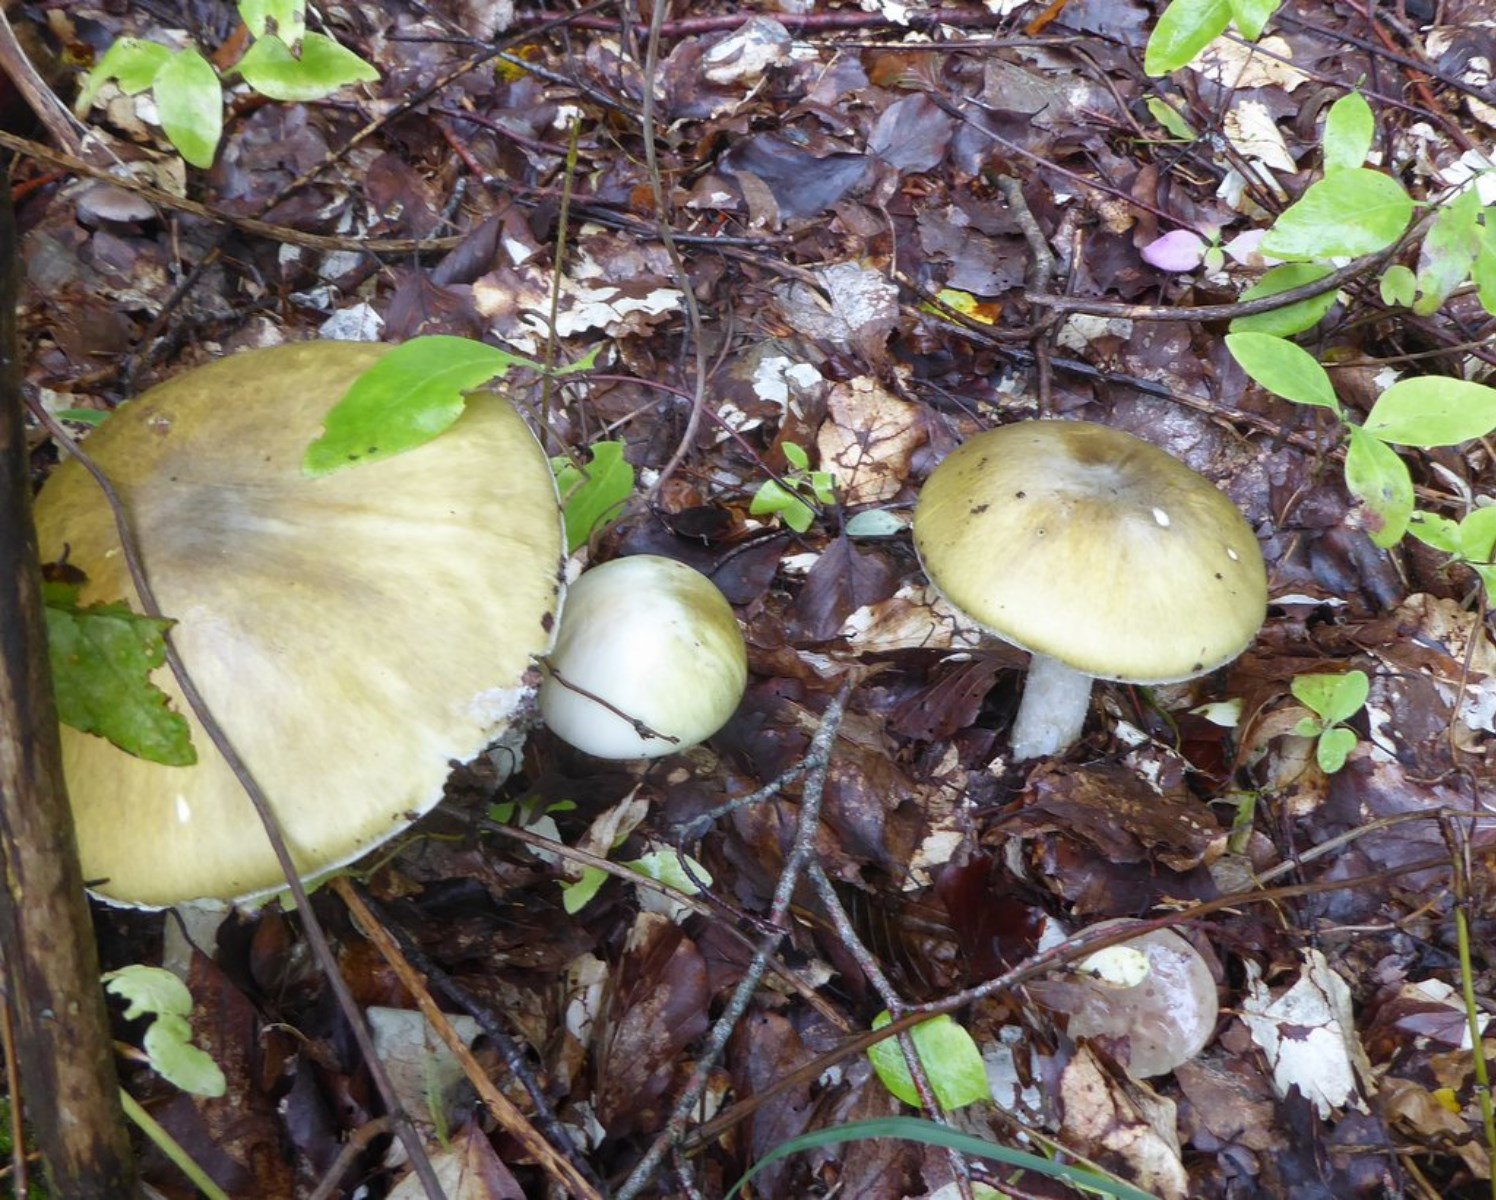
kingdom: Fungi
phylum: Basidiomycota
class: Agaricomycetes
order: Agaricales
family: Amanitaceae
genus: Amanita
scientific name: Amanita phalloides
